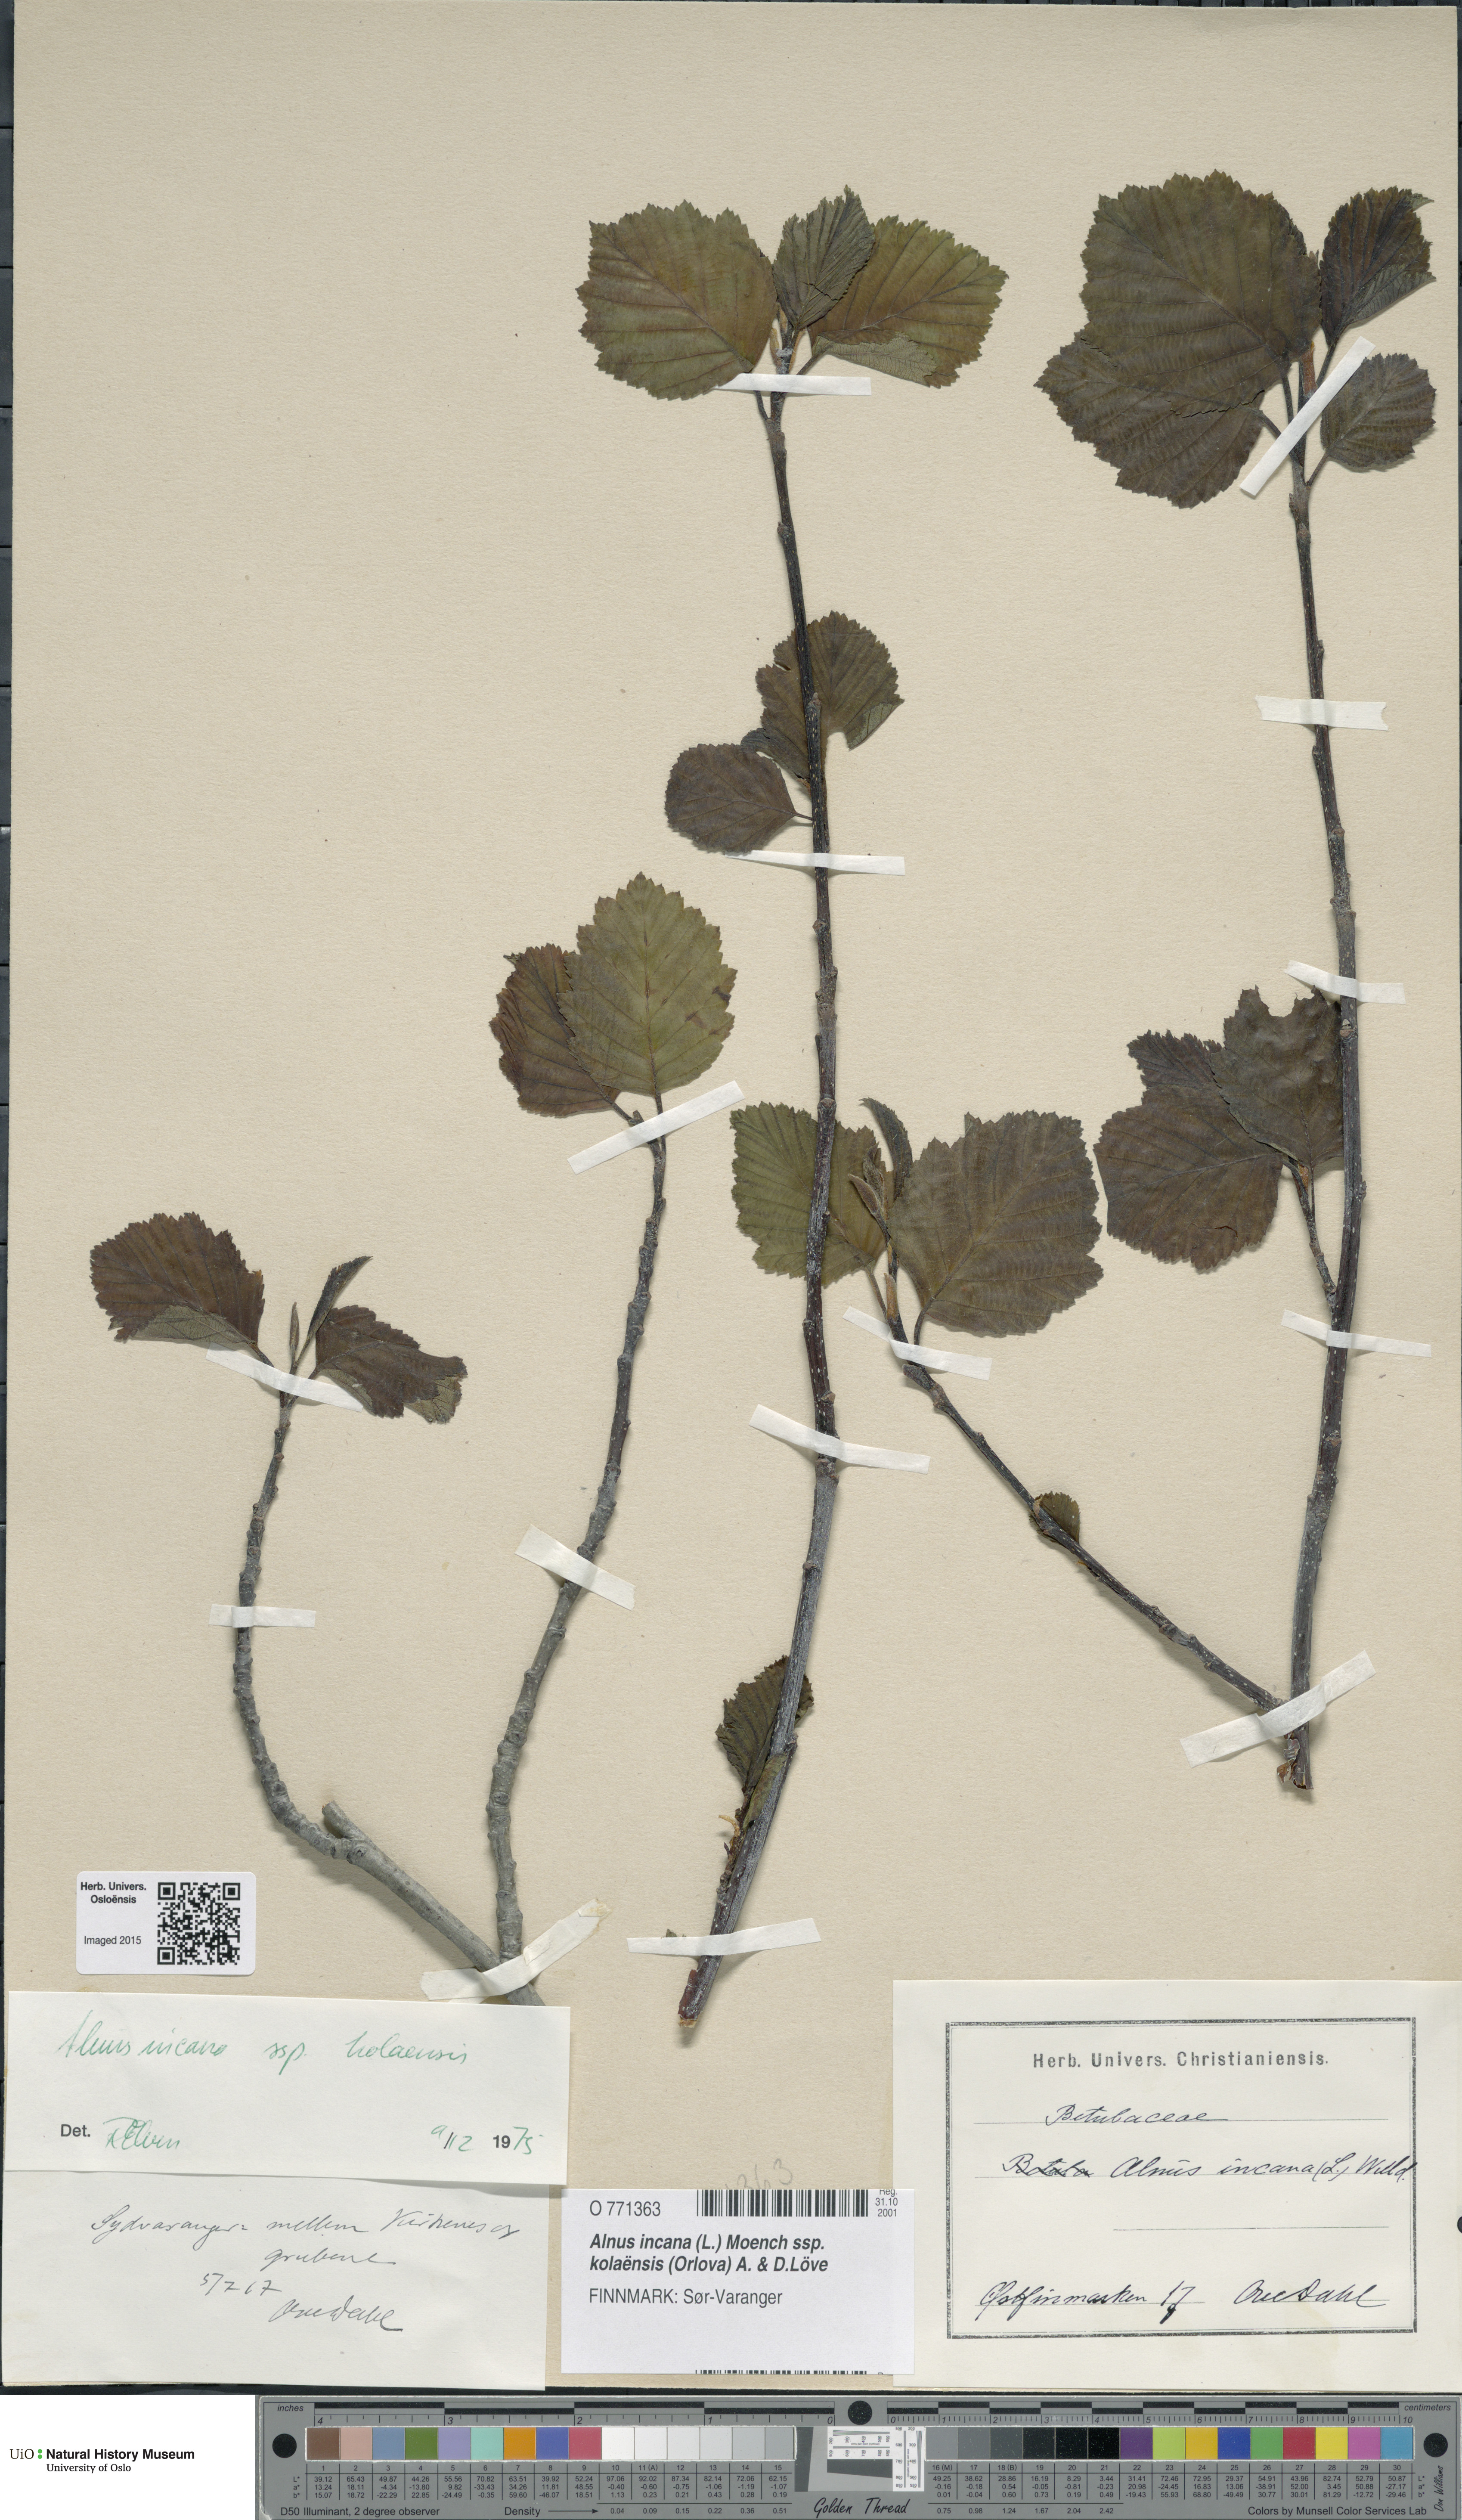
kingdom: Plantae
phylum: Tracheophyta
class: Magnoliopsida
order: Fagales
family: Betulaceae
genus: Alnus
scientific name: Alnus incana
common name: Grey alder
